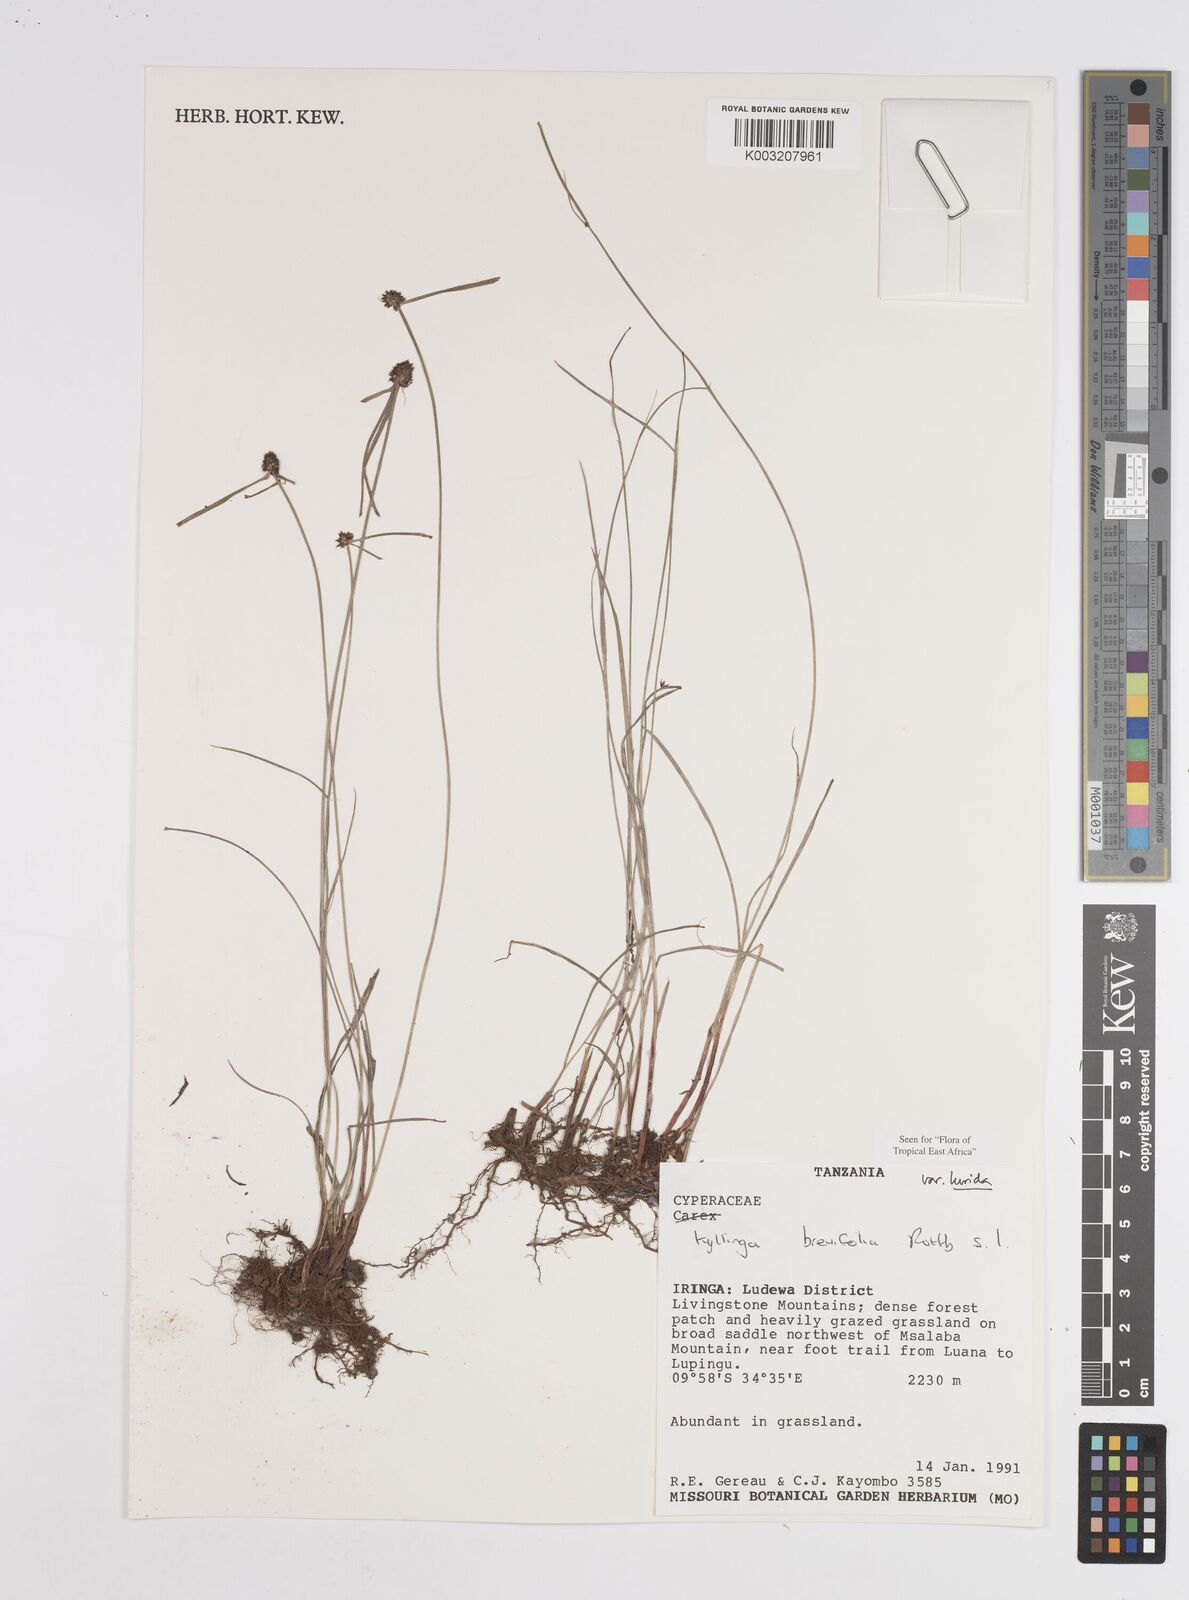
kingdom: Plantae
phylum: Tracheophyta
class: Liliopsida
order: Poales
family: Cyperaceae
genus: Cyperus
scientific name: Cyperus erectus
